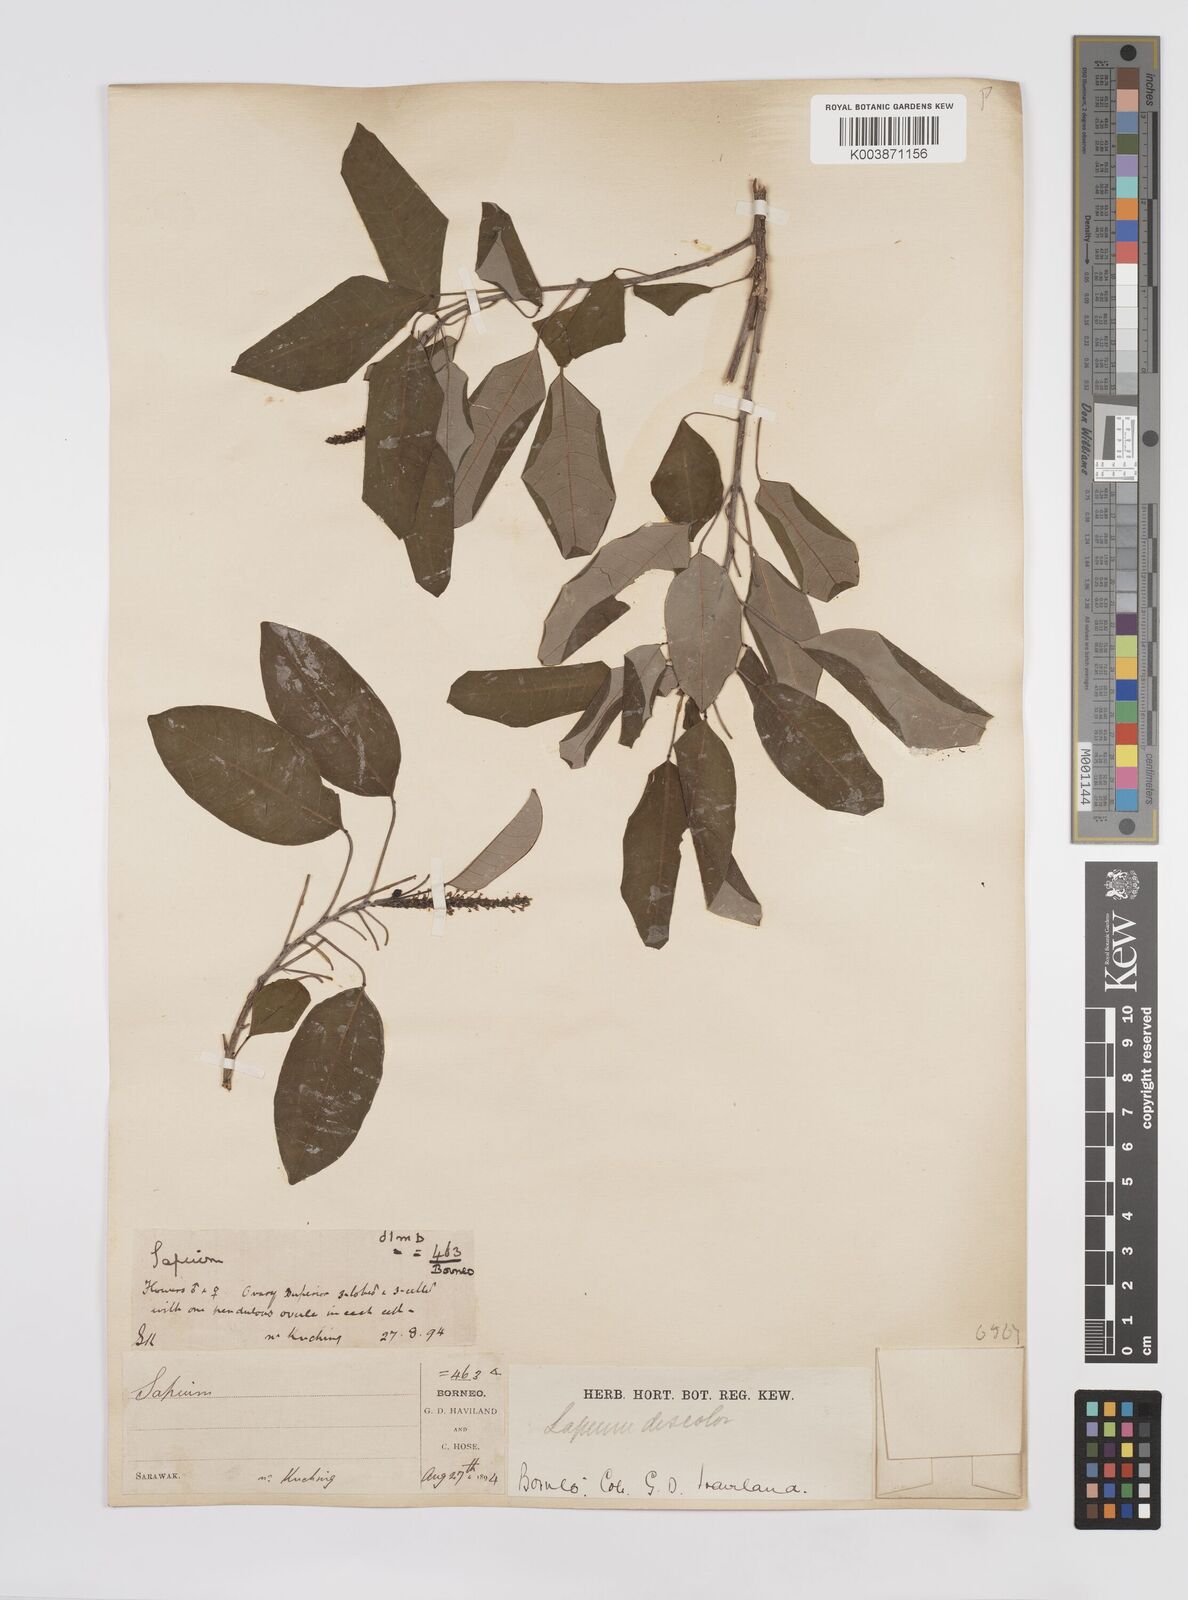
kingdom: Plantae
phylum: Tracheophyta
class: Magnoliopsida
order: Malpighiales
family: Euphorbiaceae
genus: Triadica
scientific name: Triadica cochinchinensis
